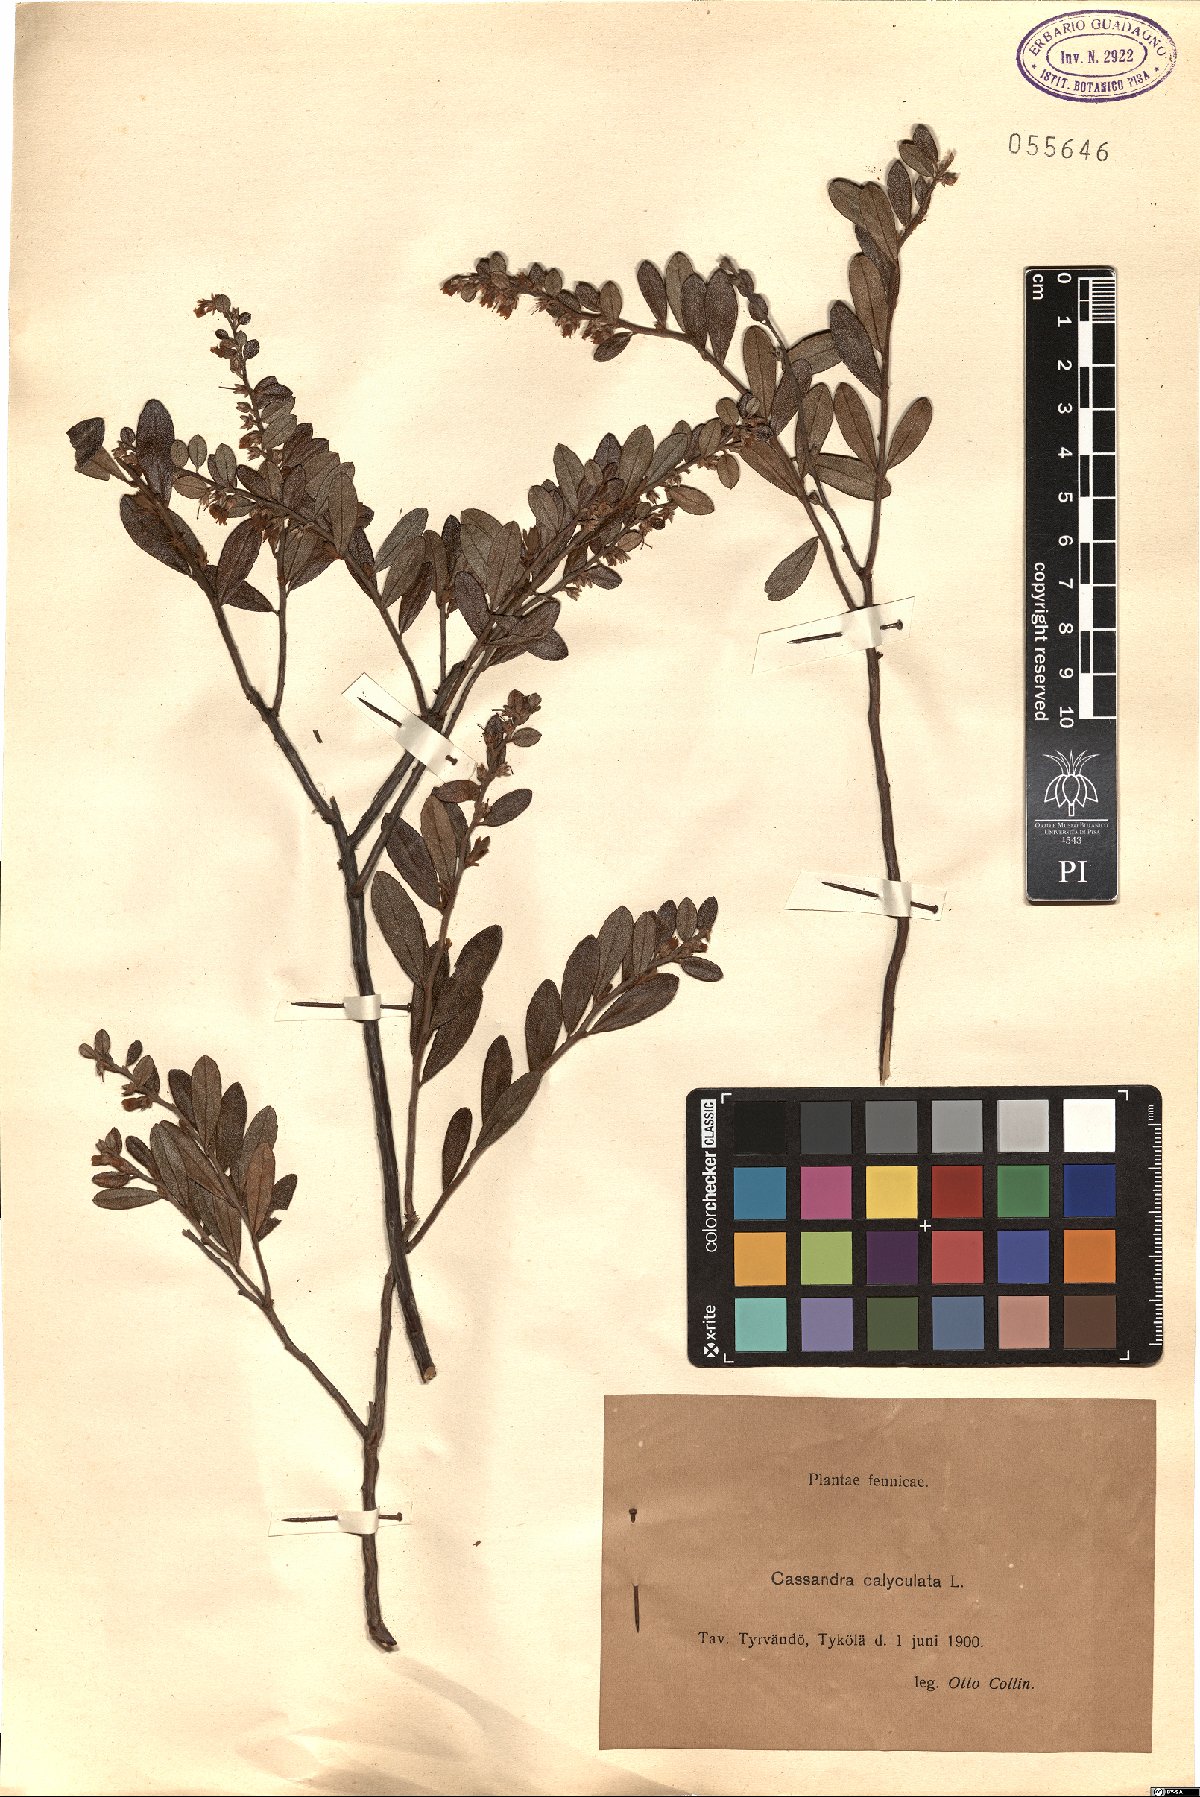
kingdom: Plantae
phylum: Tracheophyta
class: Magnoliopsida
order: Ericales
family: Ericaceae
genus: Chamaedaphne
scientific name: Chamaedaphne calyculata
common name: Leatherleaf
